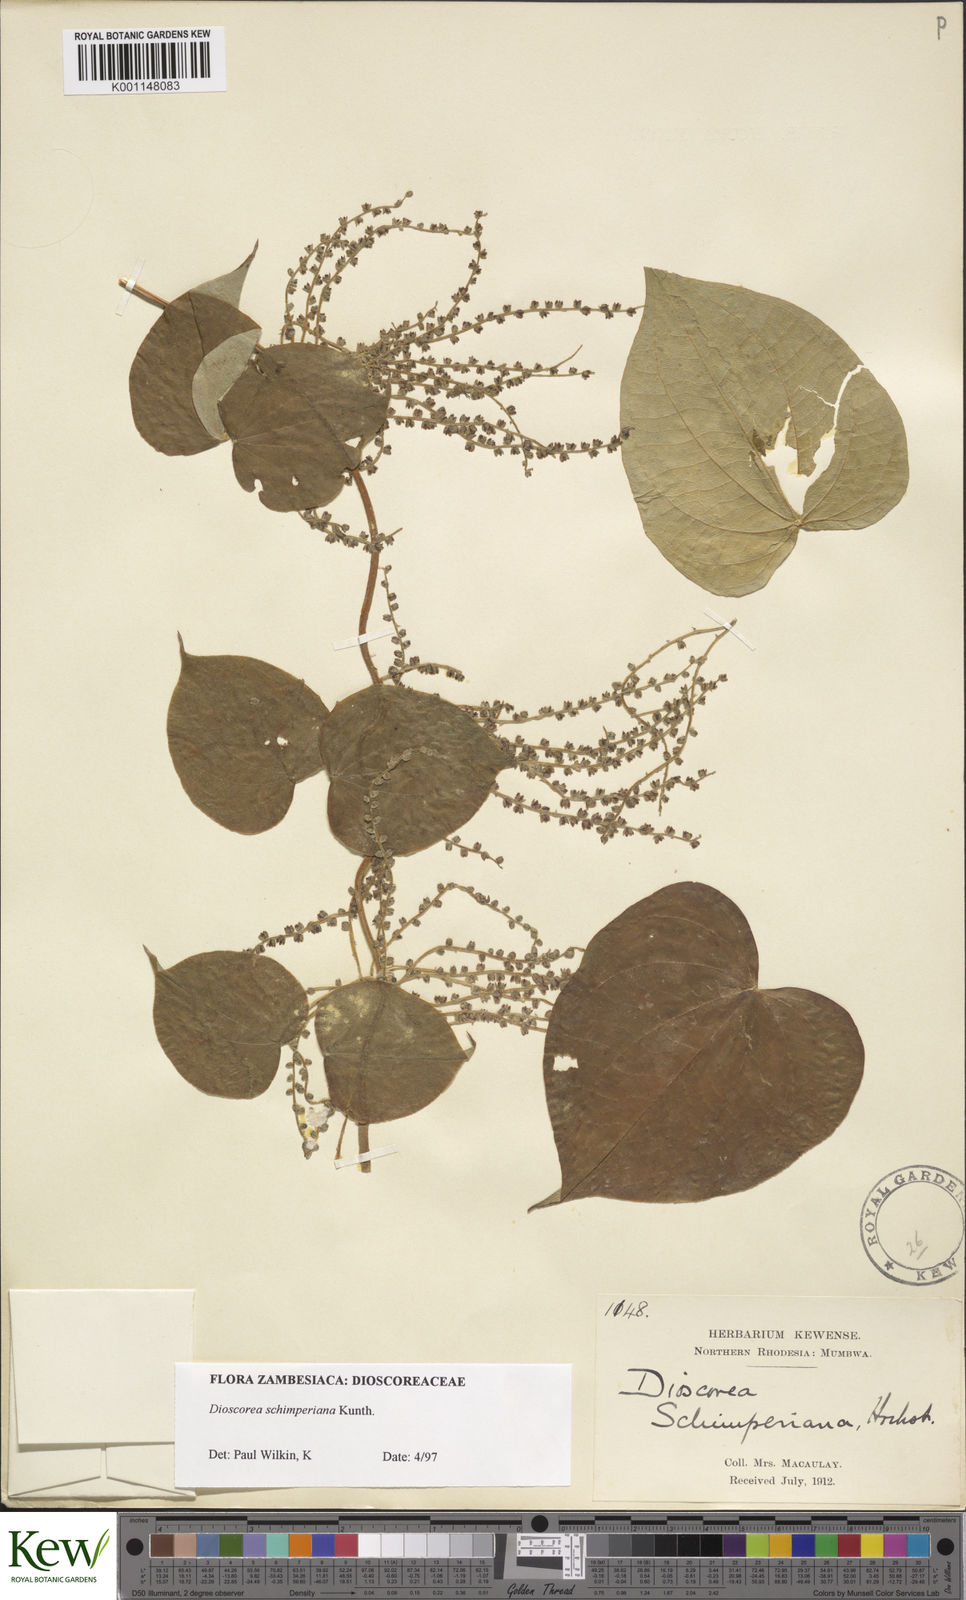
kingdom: Plantae
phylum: Tracheophyta
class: Liliopsida
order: Dioscoreales
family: Dioscoreaceae
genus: Dioscorea
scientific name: Dioscorea schimperiana
